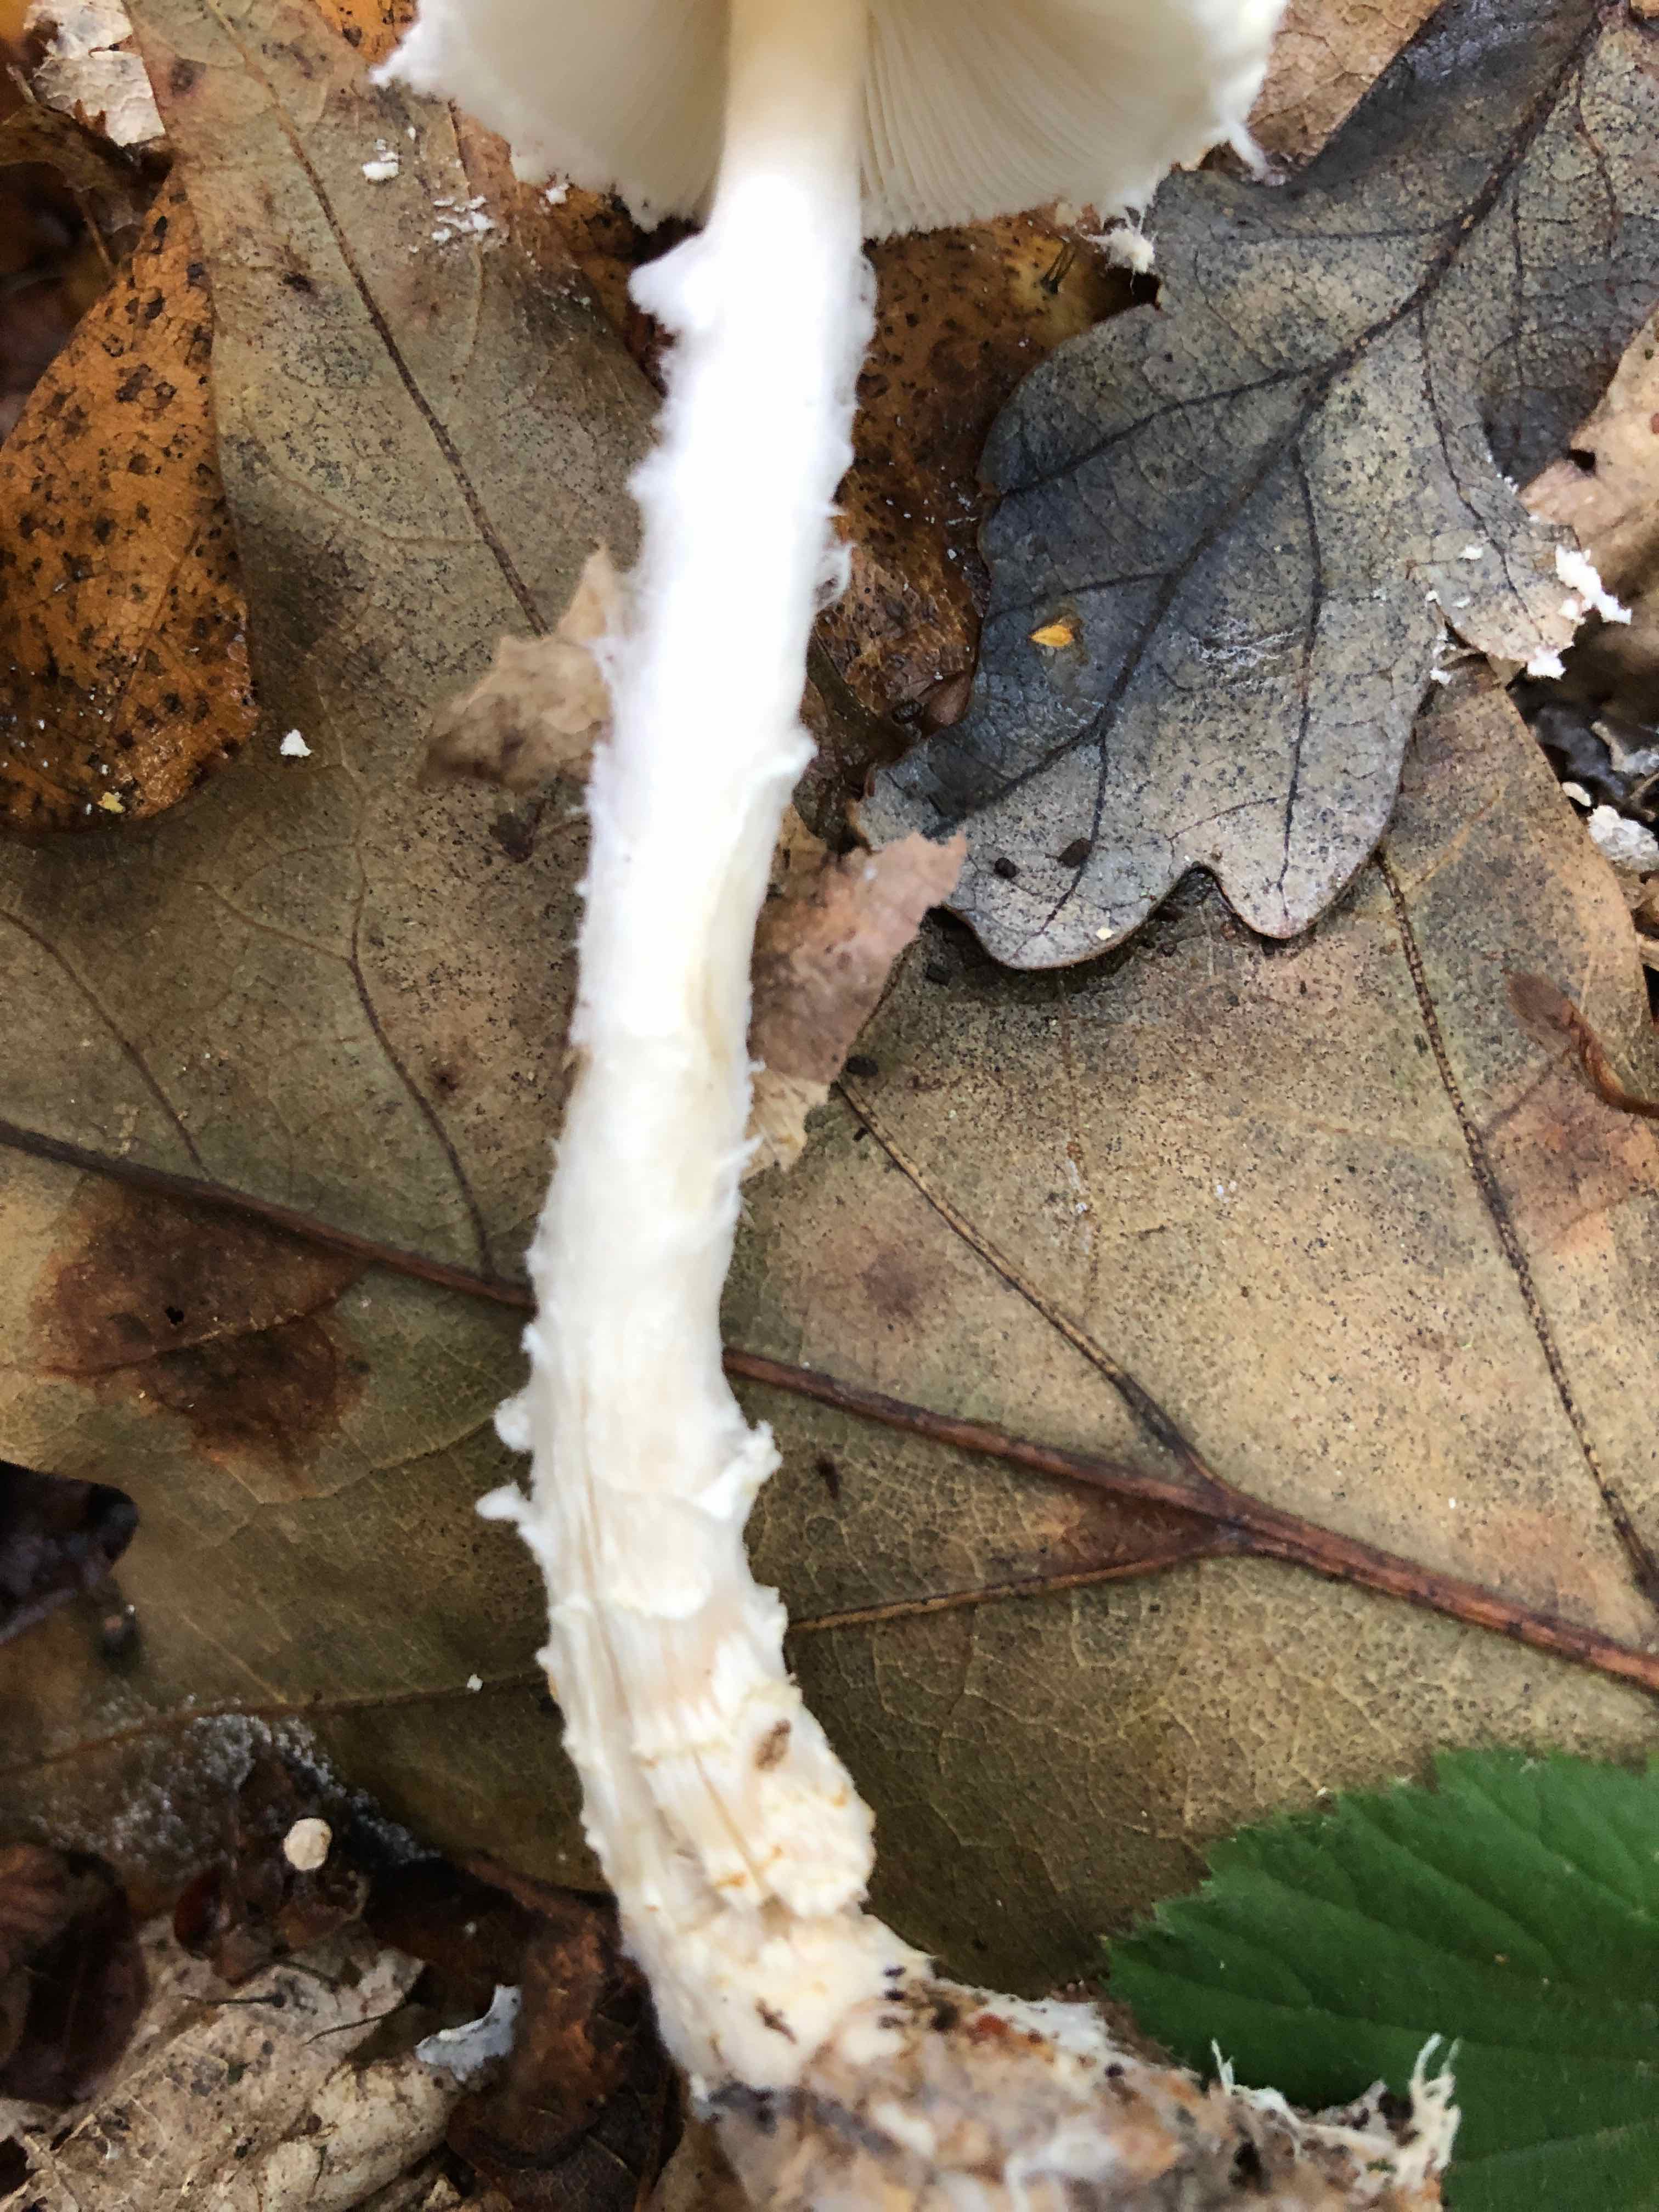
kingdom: Fungi
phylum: Basidiomycota
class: Agaricomycetes
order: Agaricales
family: Agaricaceae
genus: Lepiota
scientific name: Lepiota clypeolaria
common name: flosset parasolhat
